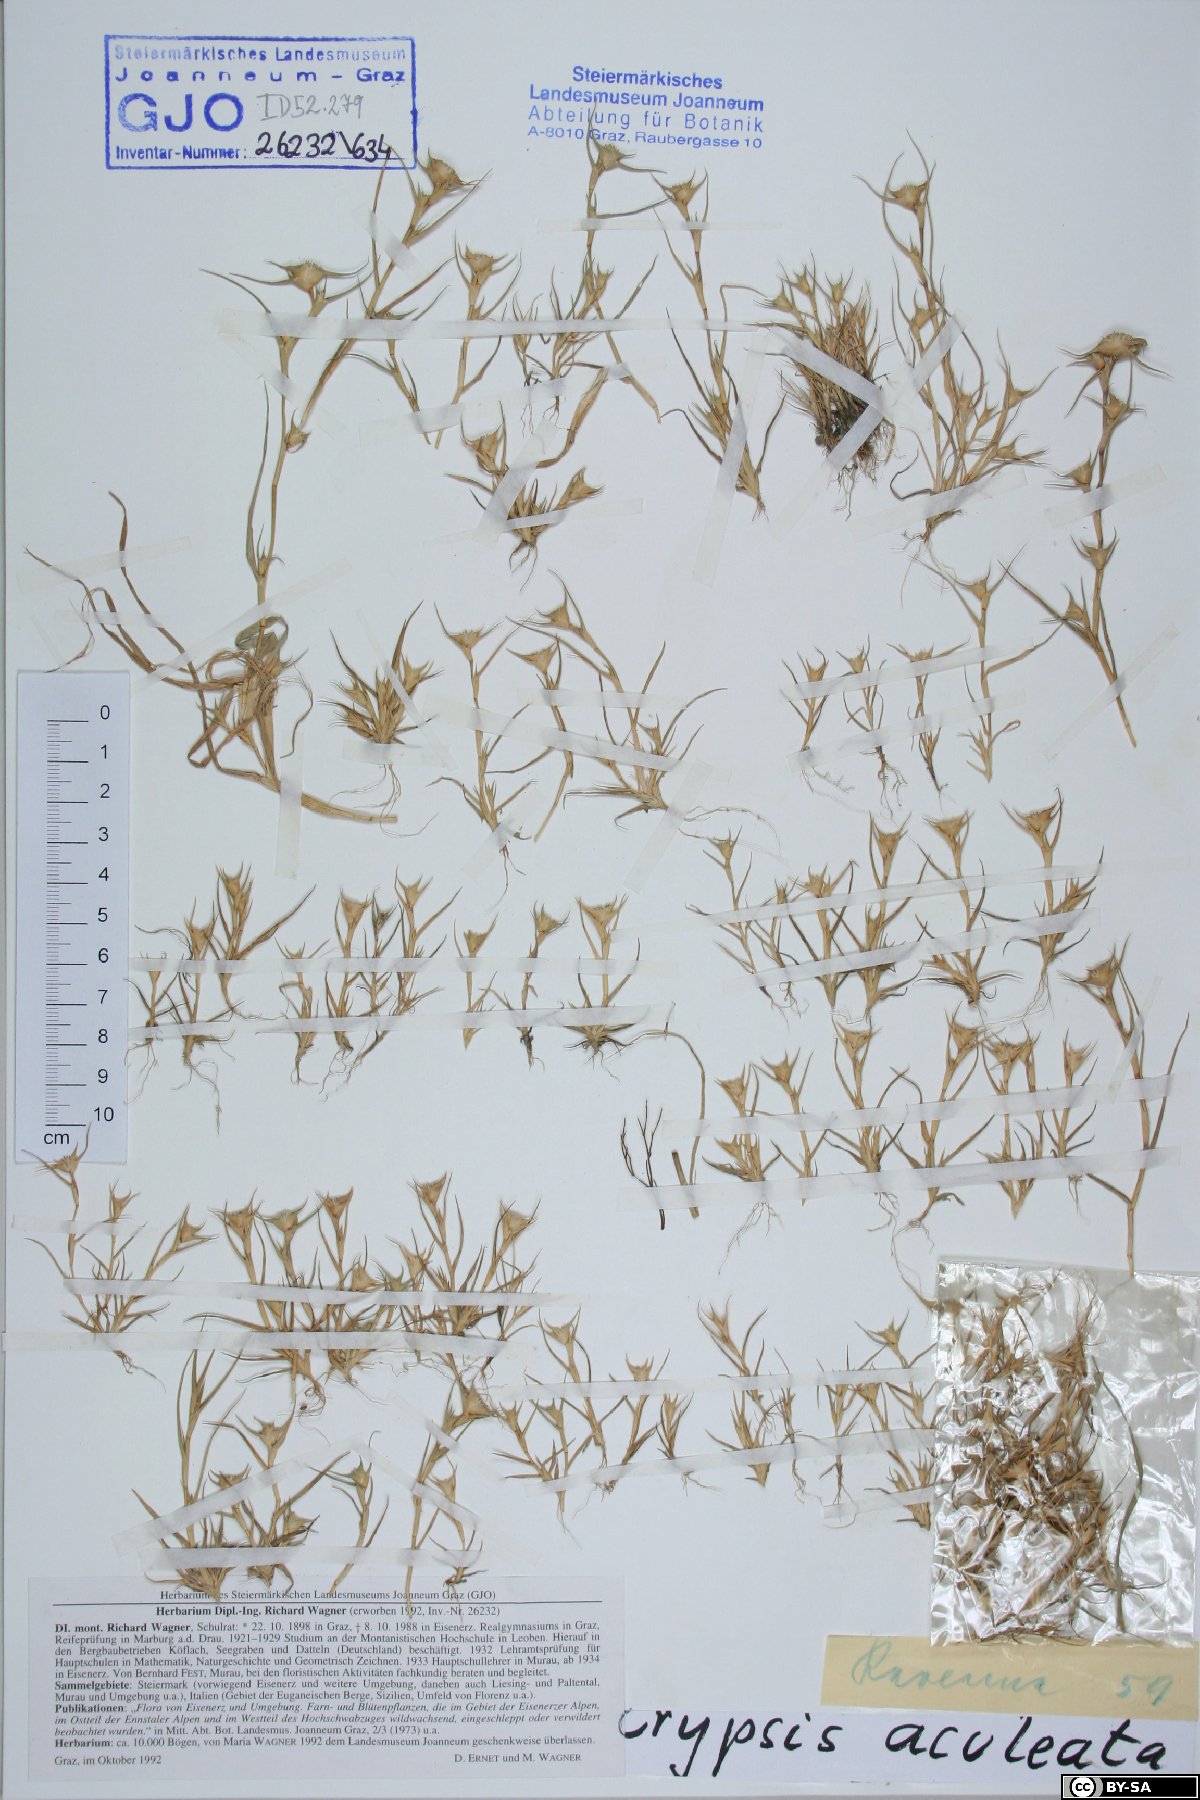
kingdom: Plantae
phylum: Tracheophyta
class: Liliopsida
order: Poales
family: Poaceae
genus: Sporobolus
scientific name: Sporobolus aculeatus
